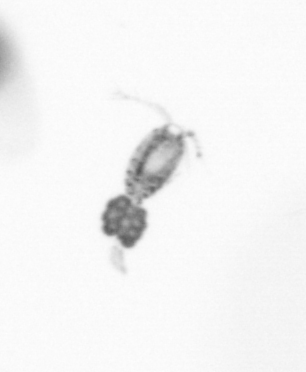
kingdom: Animalia
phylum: Arthropoda
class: Copepoda
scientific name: Copepoda
